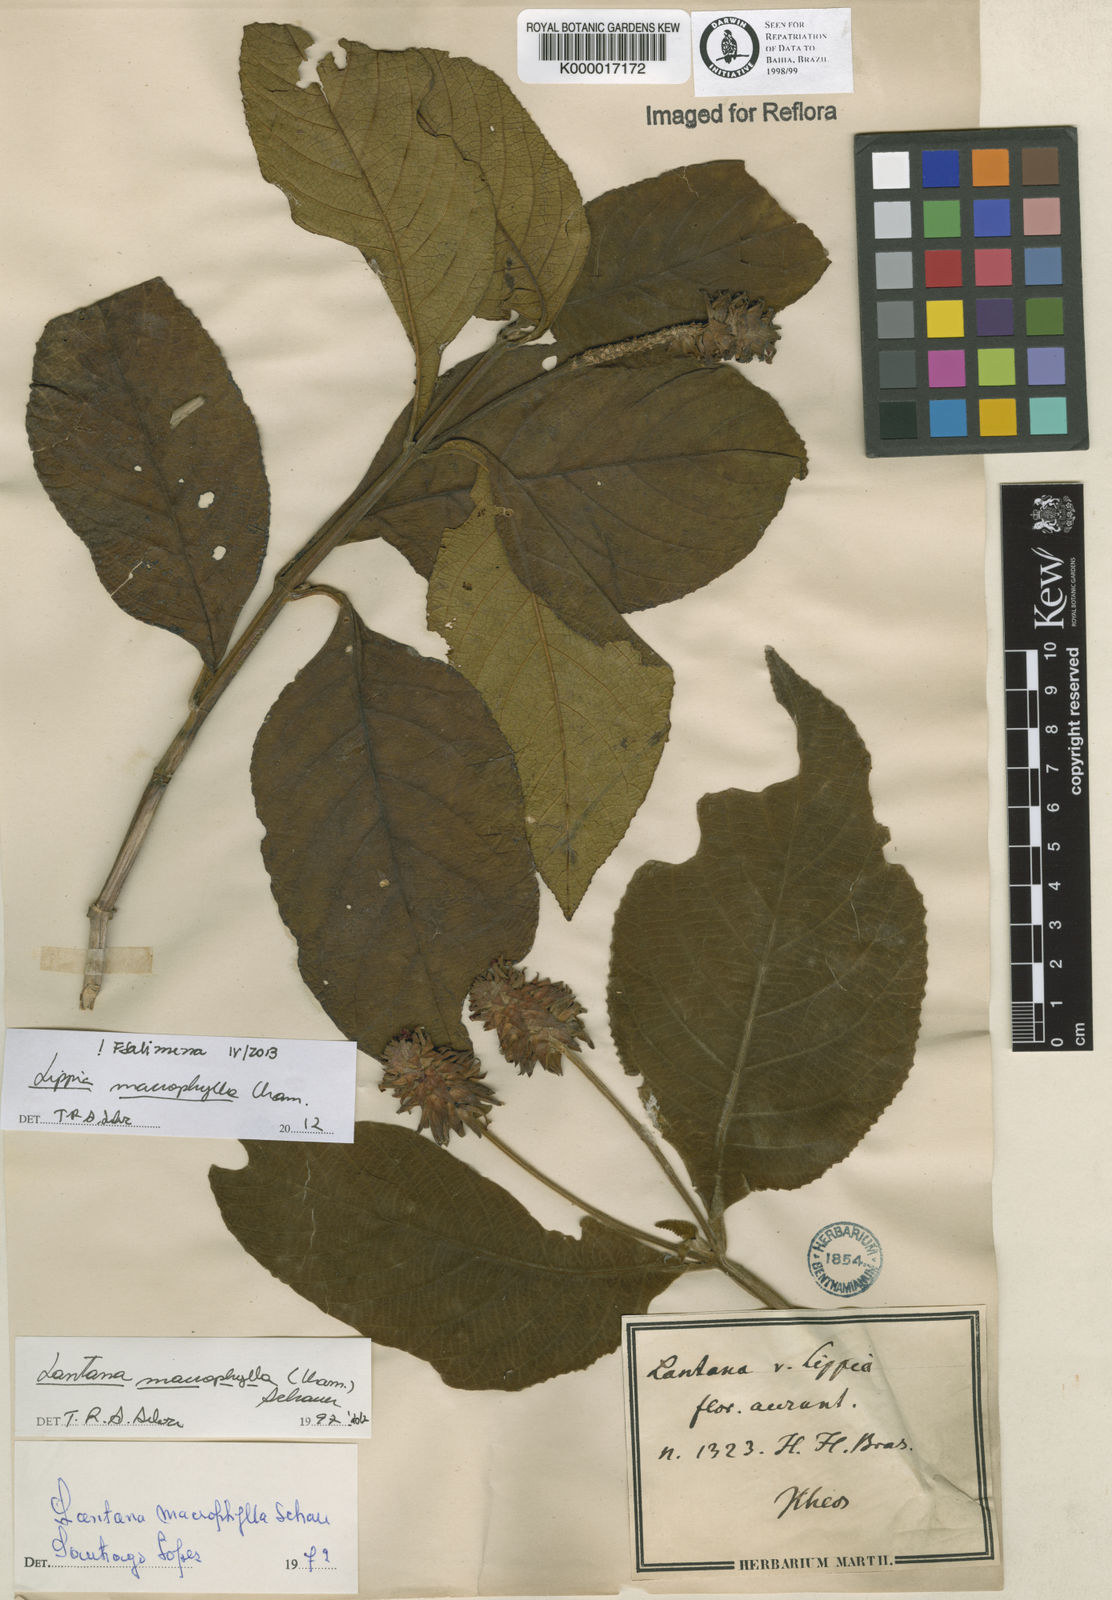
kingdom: Plantae
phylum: Tracheophyta
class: Magnoliopsida
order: Lamiales
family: Verbenaceae
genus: Lippia
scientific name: Lippia macrophylla
